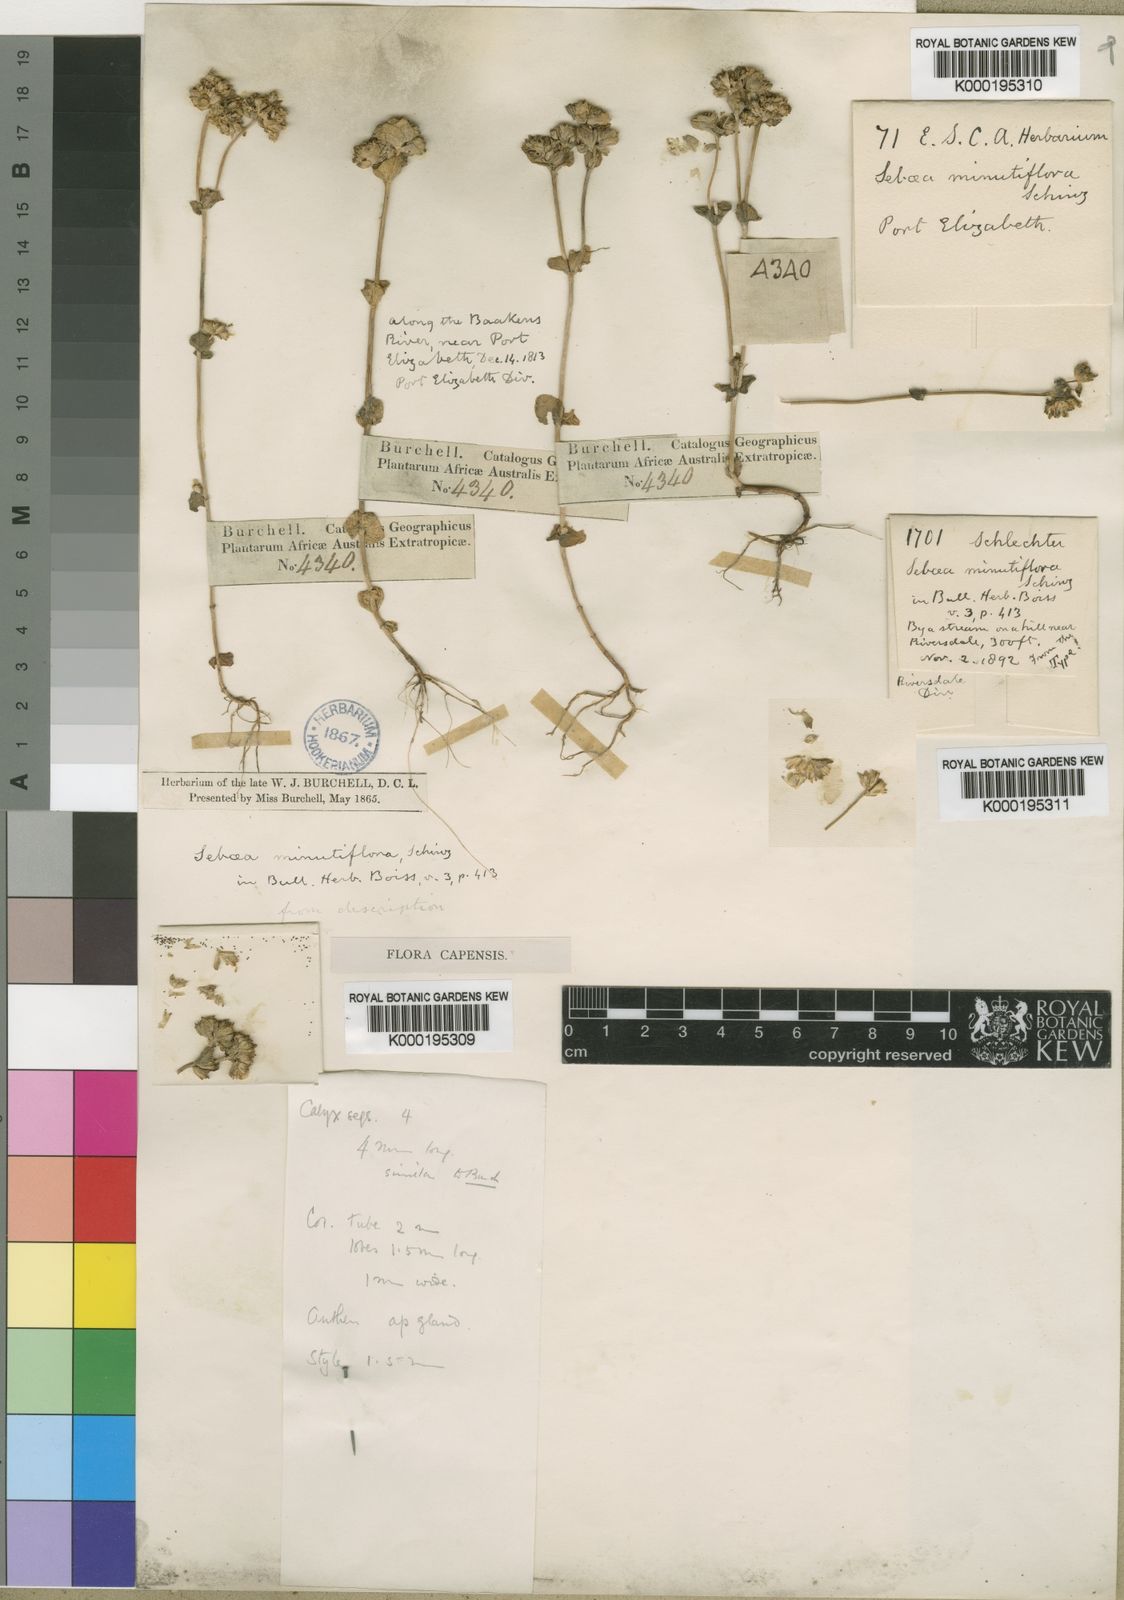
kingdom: Plantae
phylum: Tracheophyta
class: Magnoliopsida
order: Gentianales
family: Gentianaceae
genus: Sebaea
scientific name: Sebaea minutiflora
